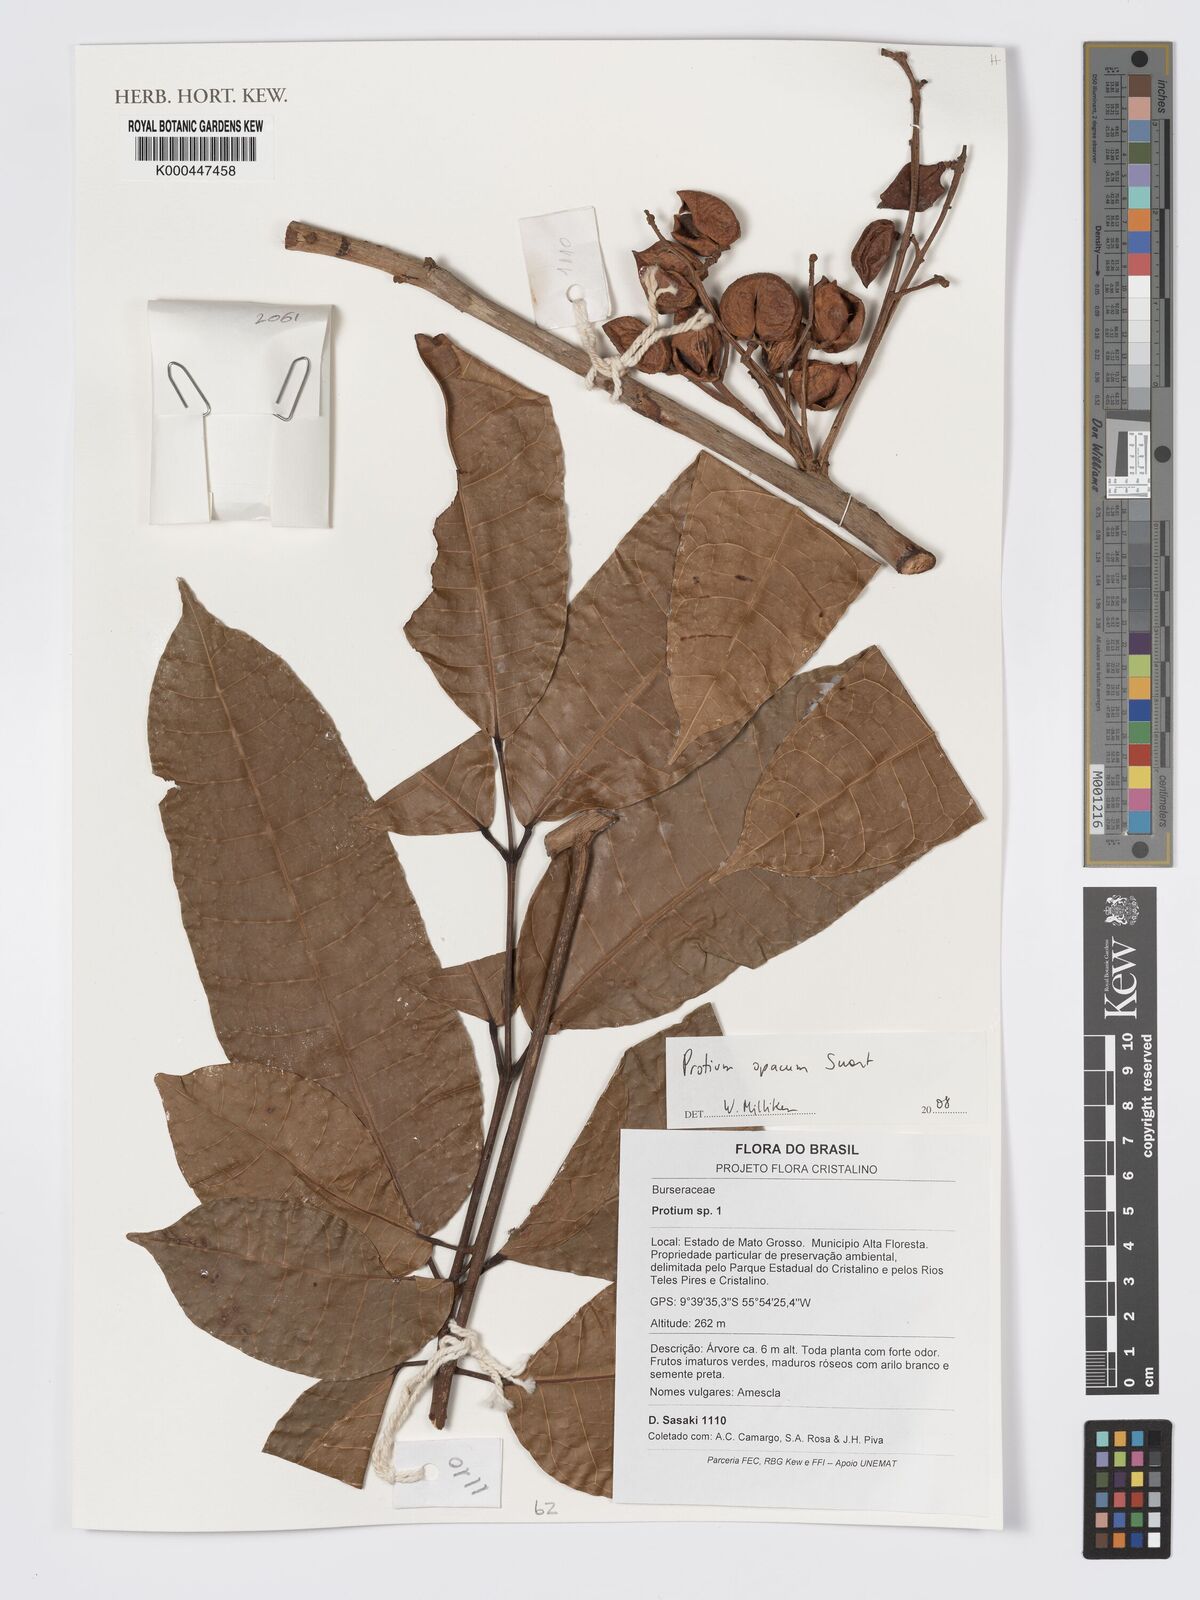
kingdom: Plantae
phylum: Tracheophyta
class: Magnoliopsida
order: Sapindales
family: Burseraceae
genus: Protium
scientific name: Protium opacum
